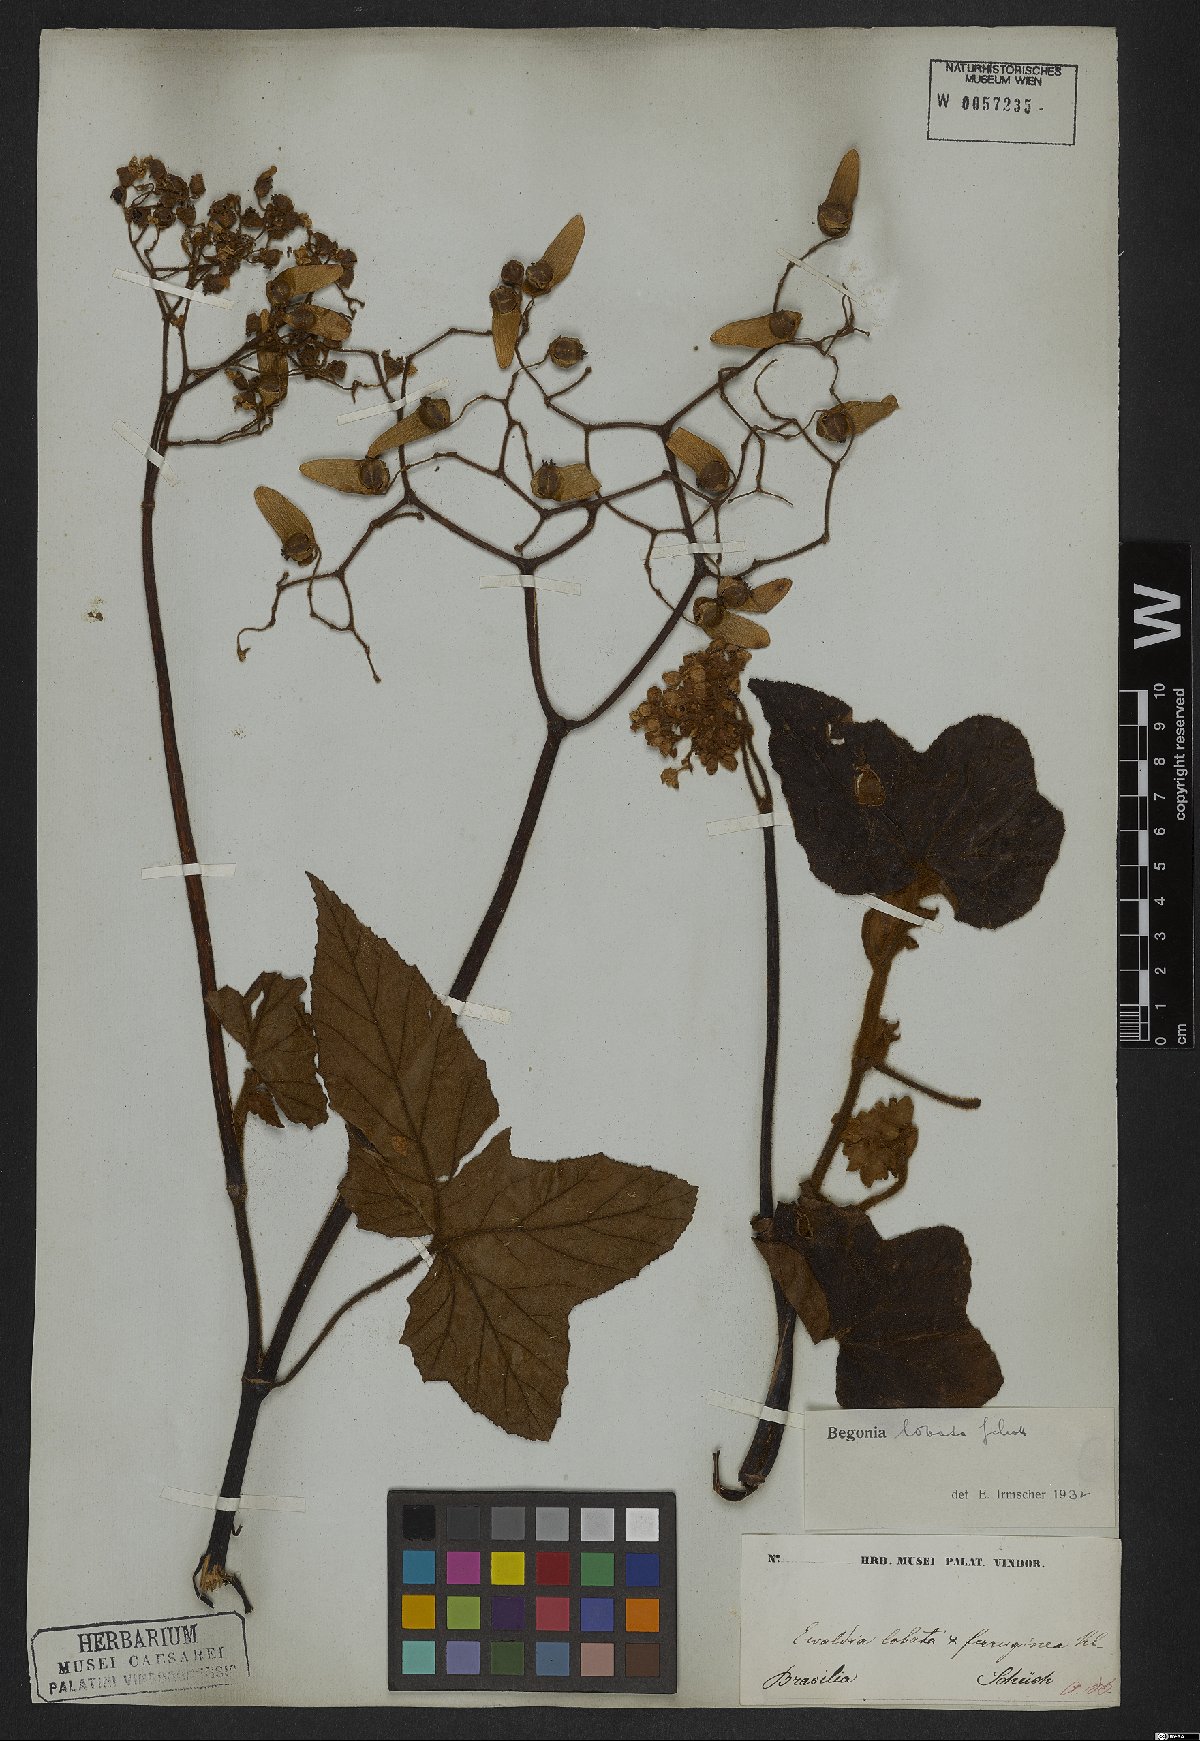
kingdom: Plantae
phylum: Tracheophyta
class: Magnoliopsida
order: Cucurbitales
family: Begoniaceae
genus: Begonia
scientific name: Begonia rufa
